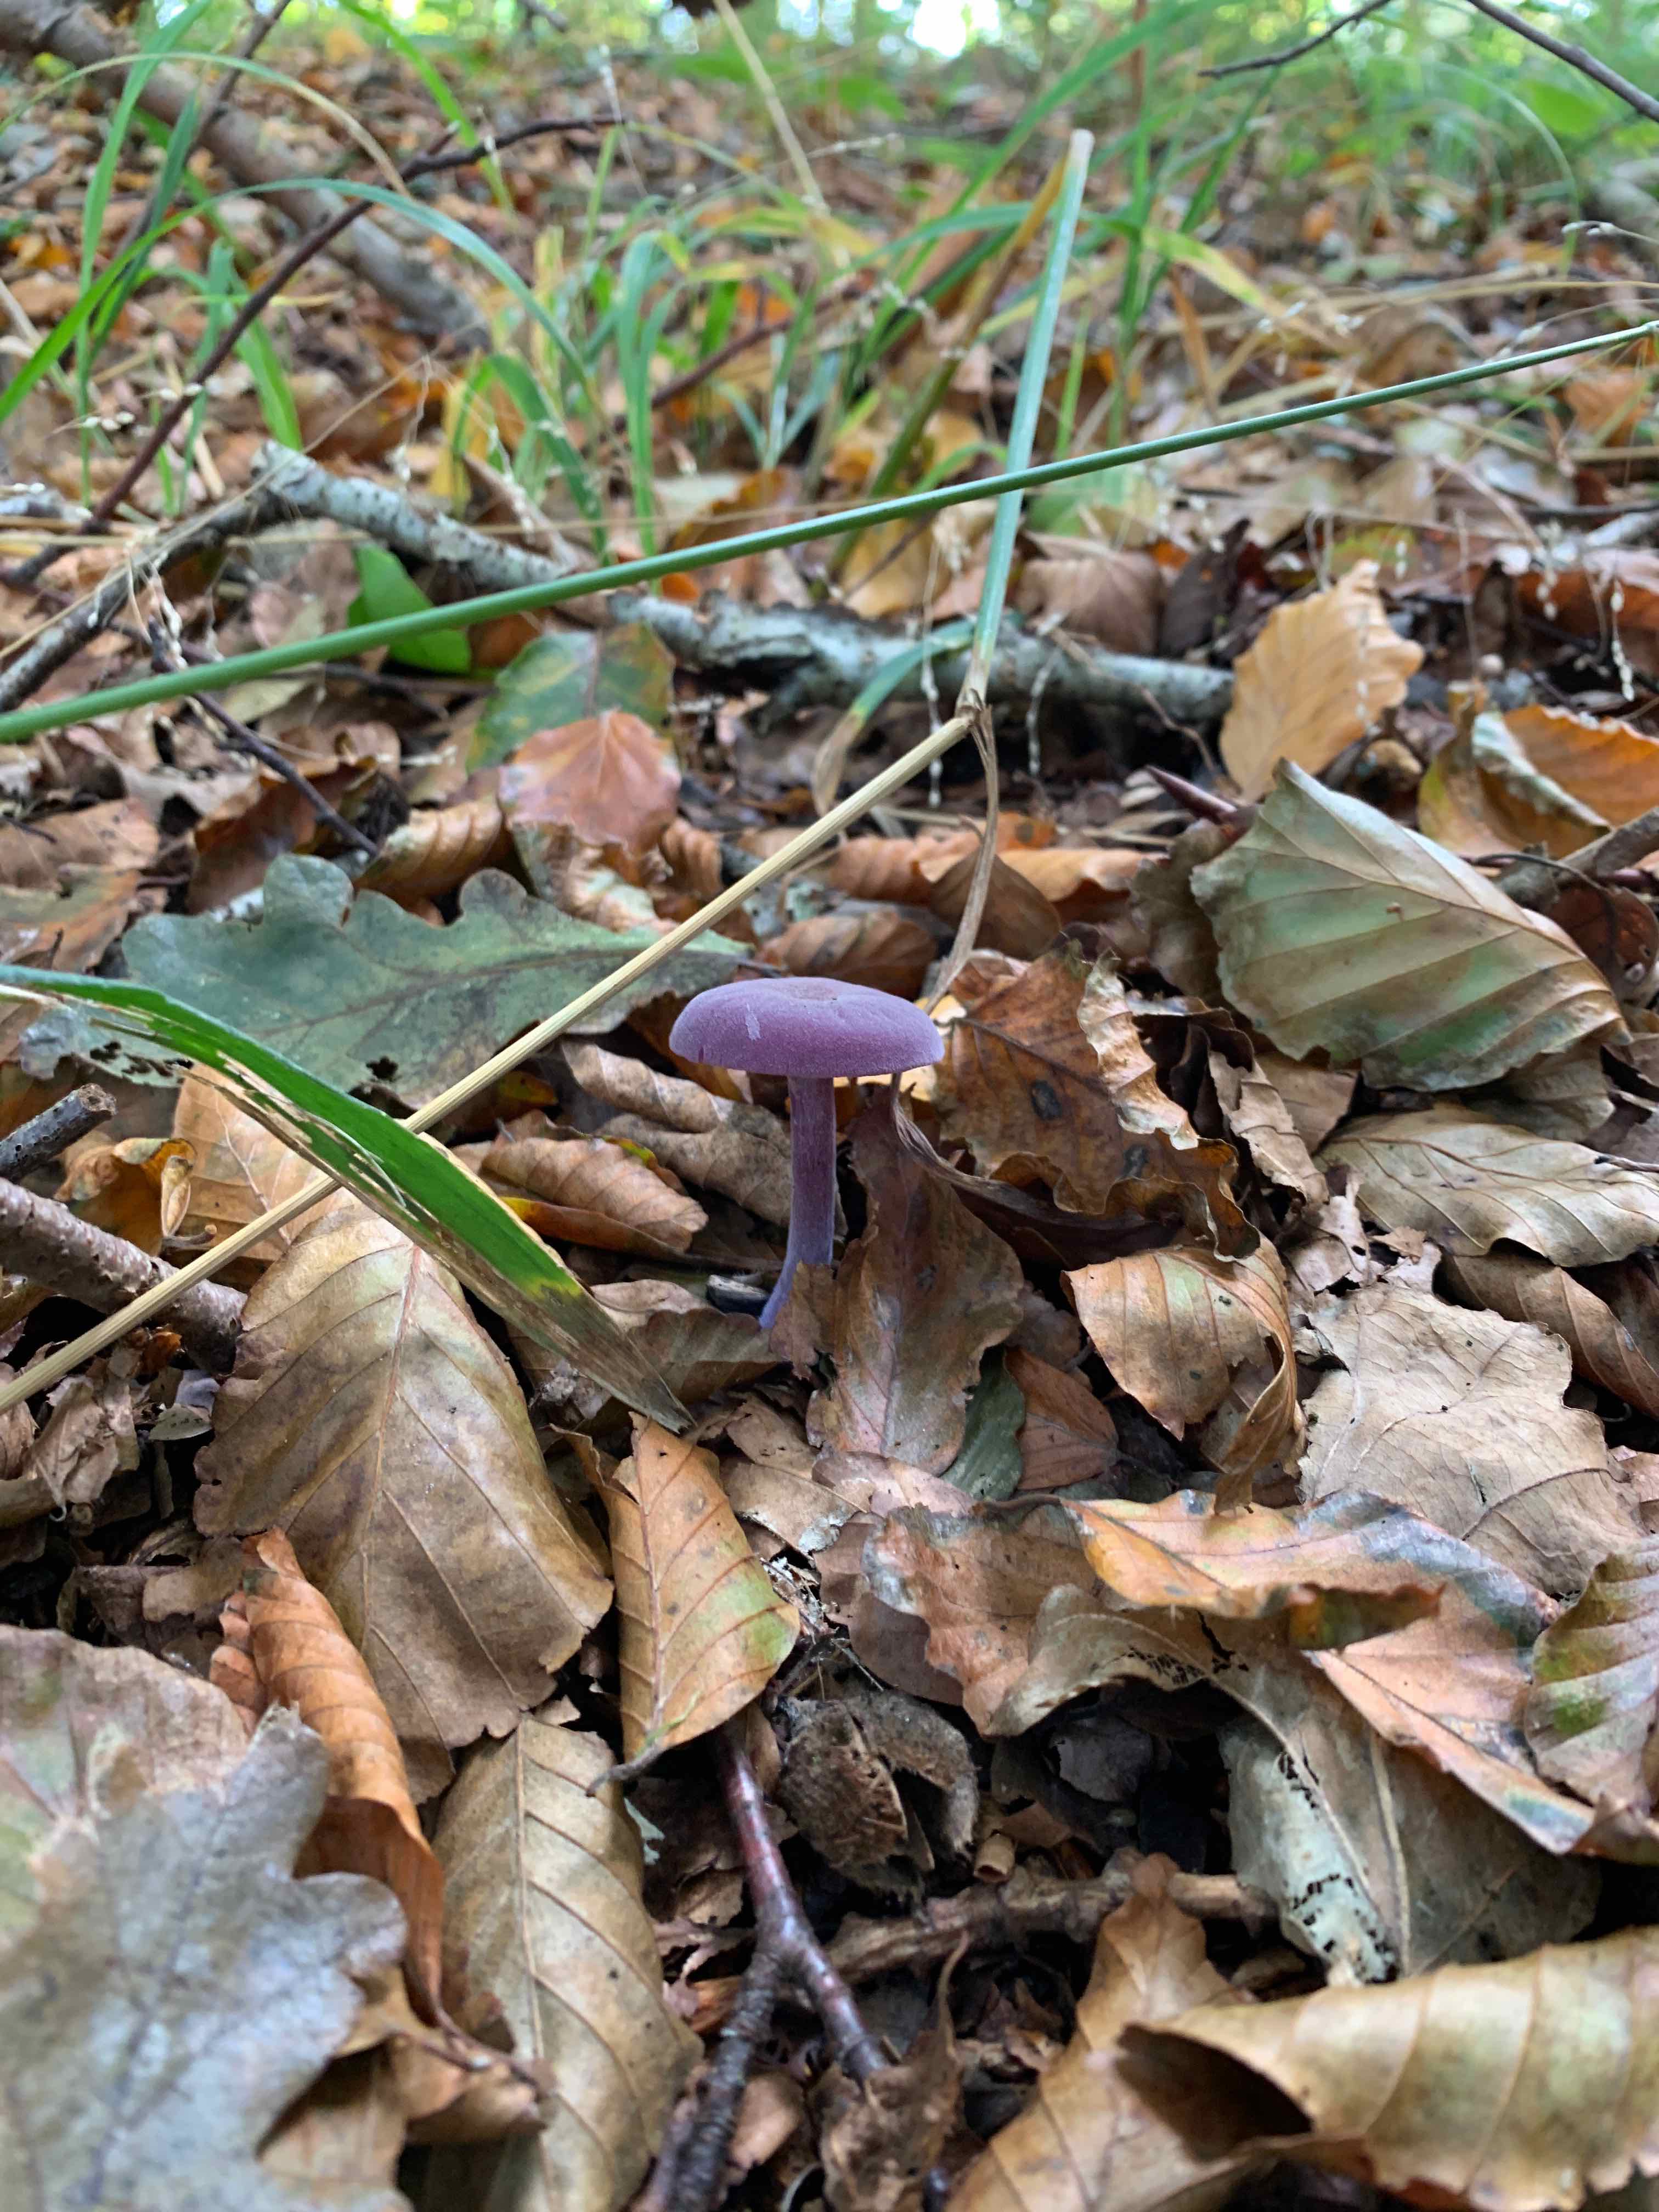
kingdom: Fungi
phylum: Basidiomycota
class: Agaricomycetes
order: Agaricales
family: Hydnangiaceae
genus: Laccaria
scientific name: Laccaria amethystina
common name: violet ametysthat
